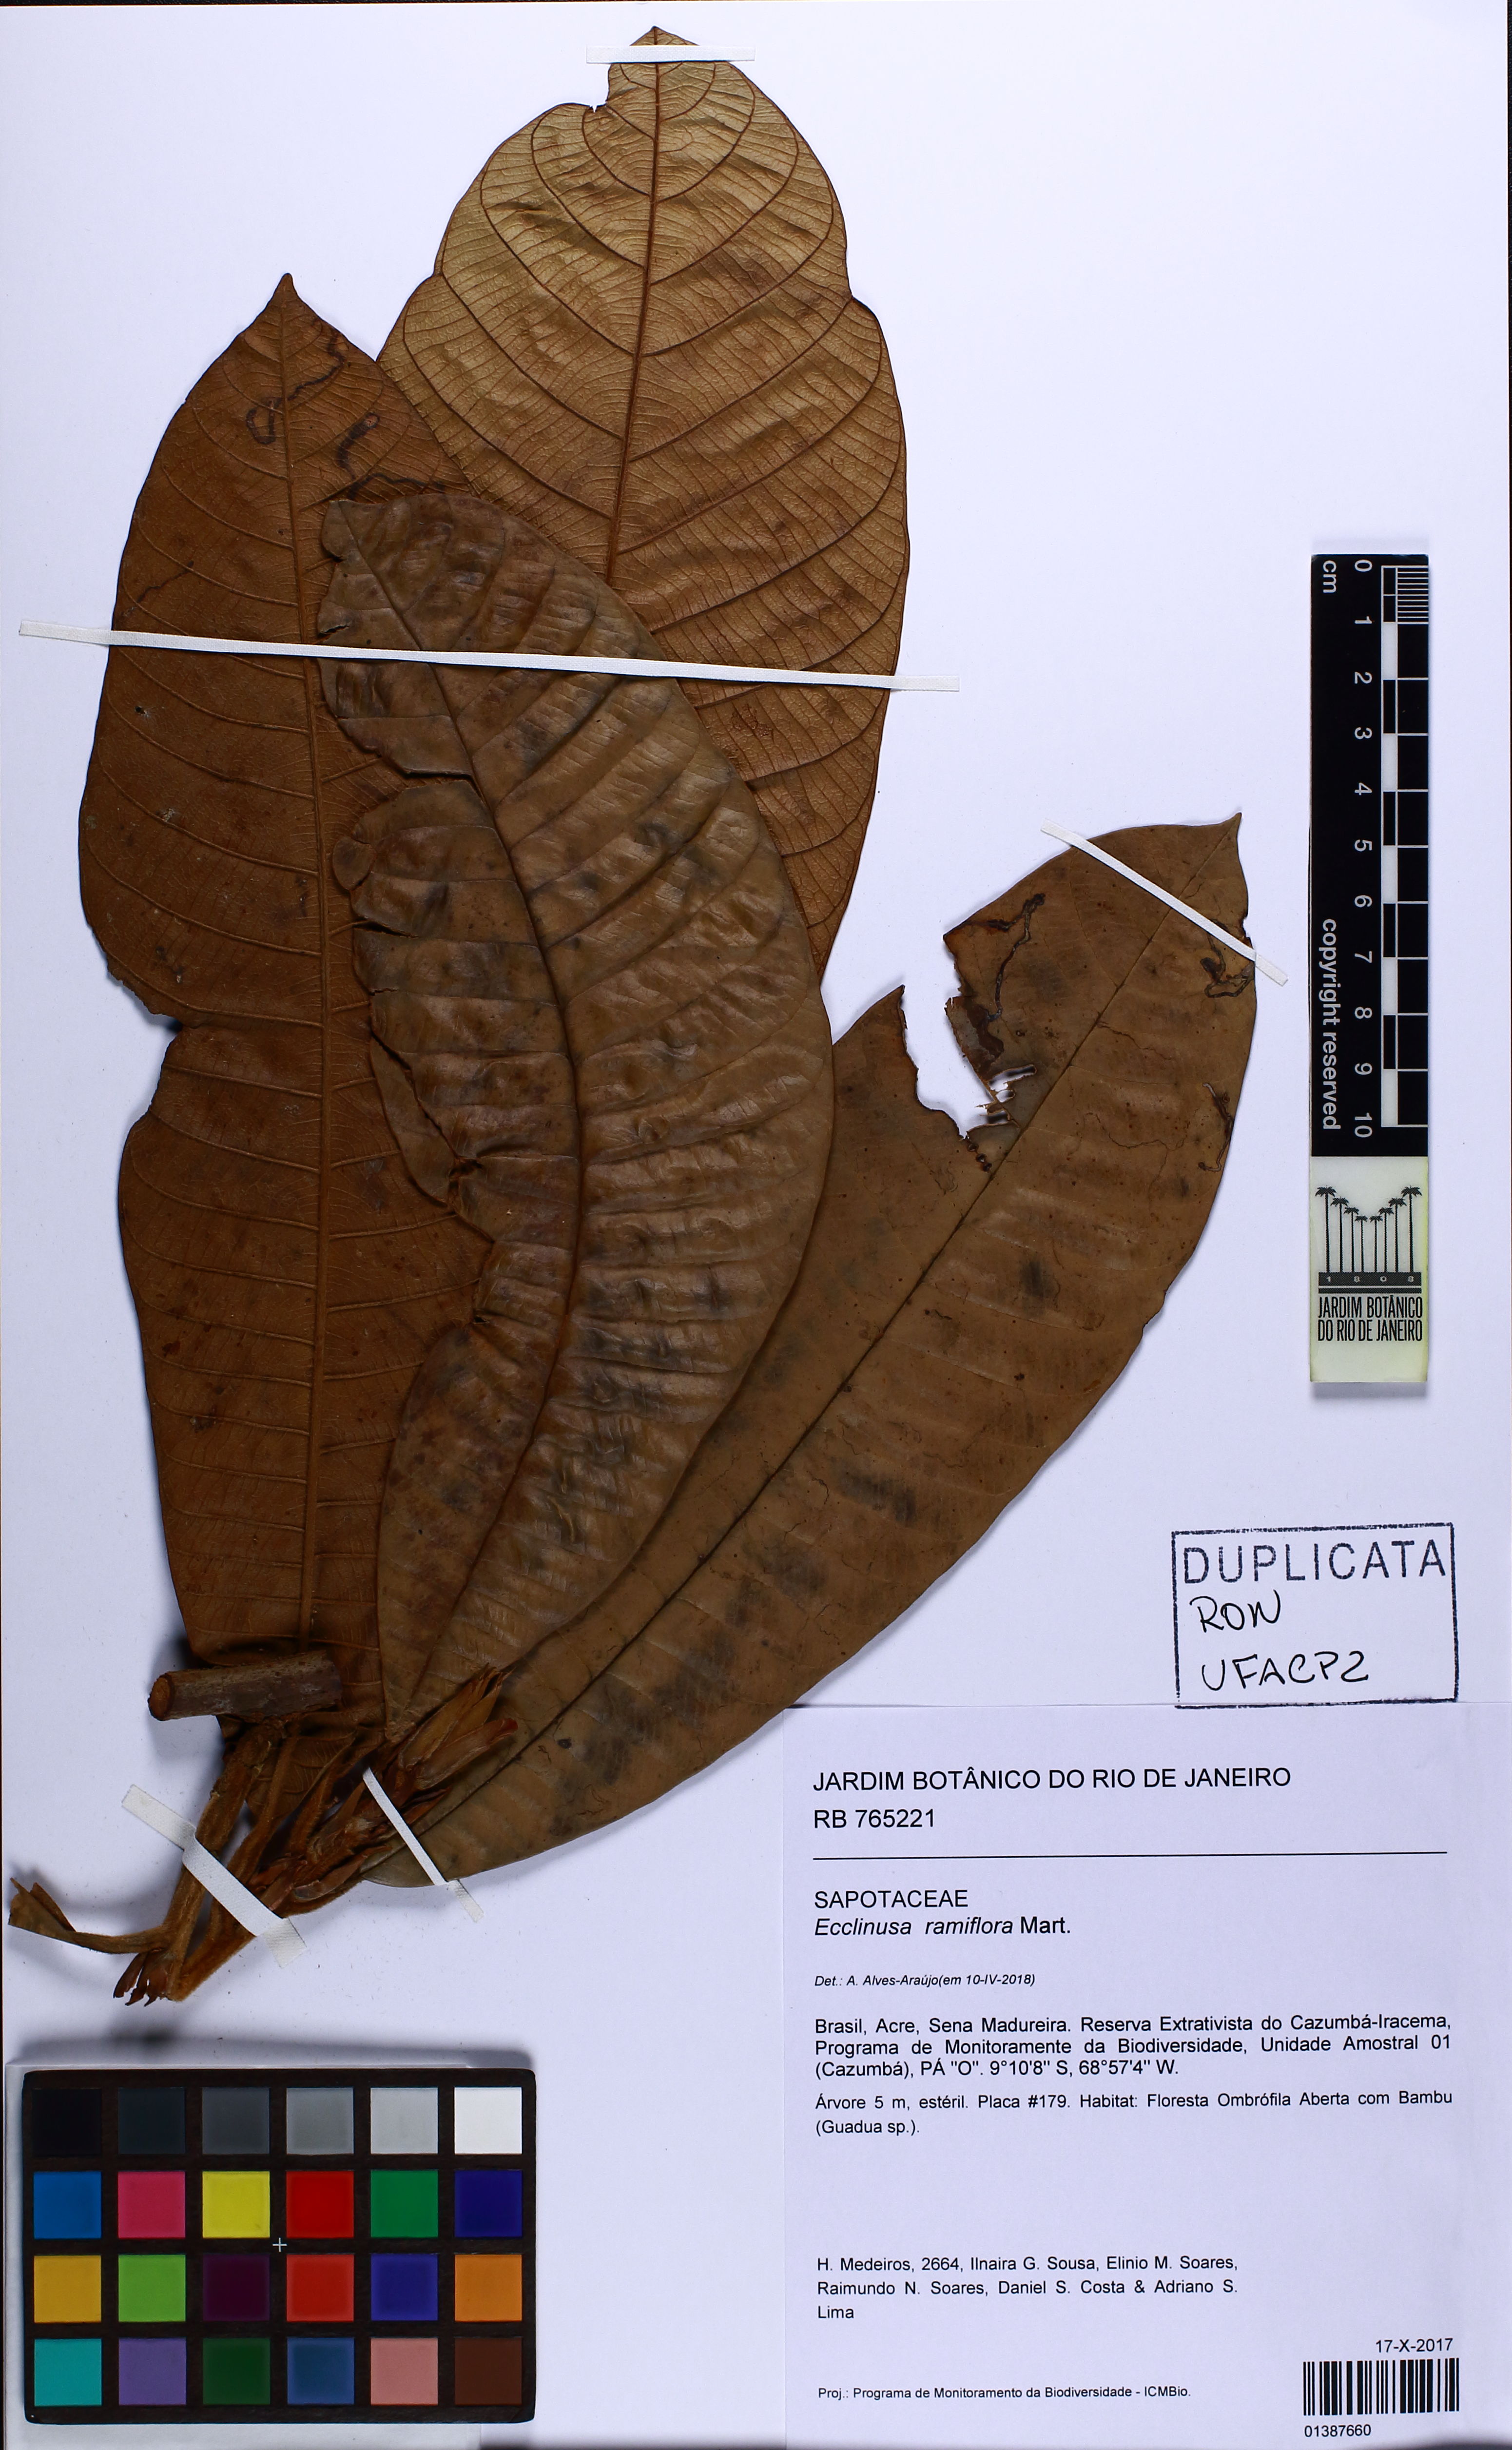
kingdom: Plantae
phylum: Tracheophyta
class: Magnoliopsida
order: Ericales
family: Sapotaceae
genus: Ecclinusa
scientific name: Ecclinusa ramiflora
